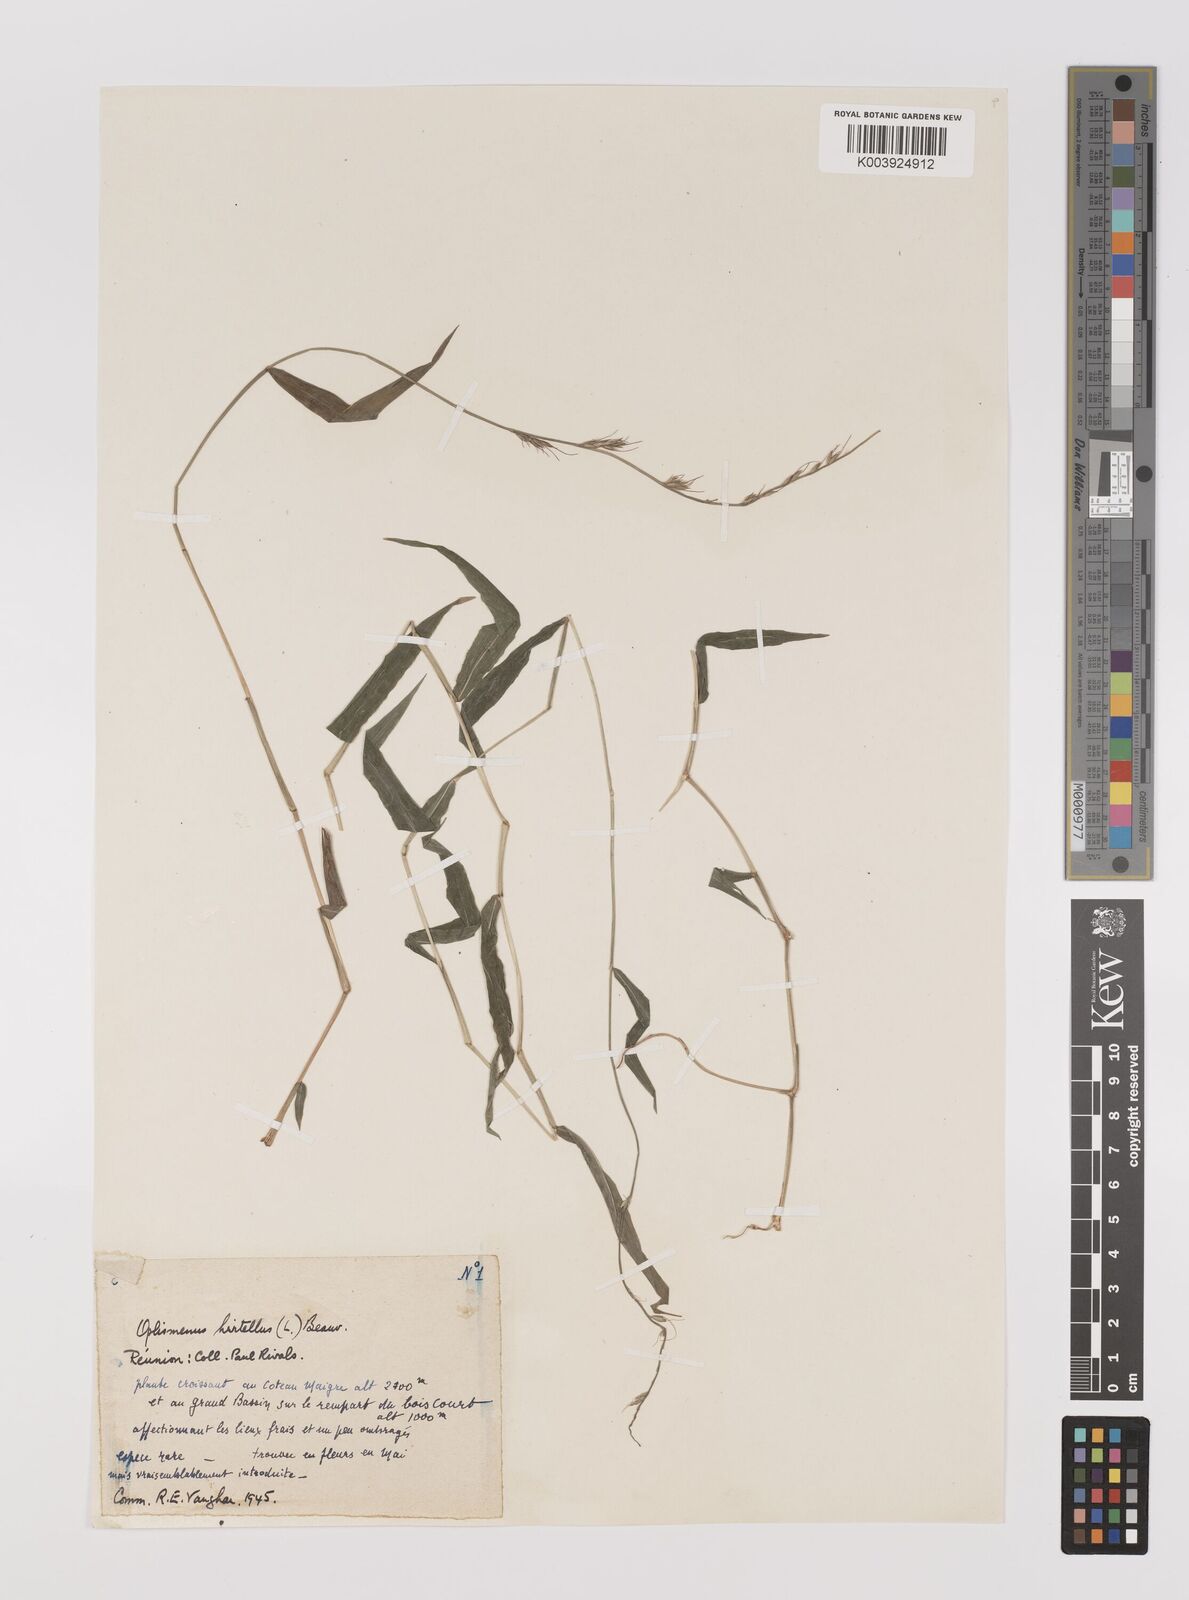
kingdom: Plantae
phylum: Tracheophyta
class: Liliopsida
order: Poales
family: Poaceae
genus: Oplismenus
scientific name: Oplismenus hirtellus
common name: Basketgrass
